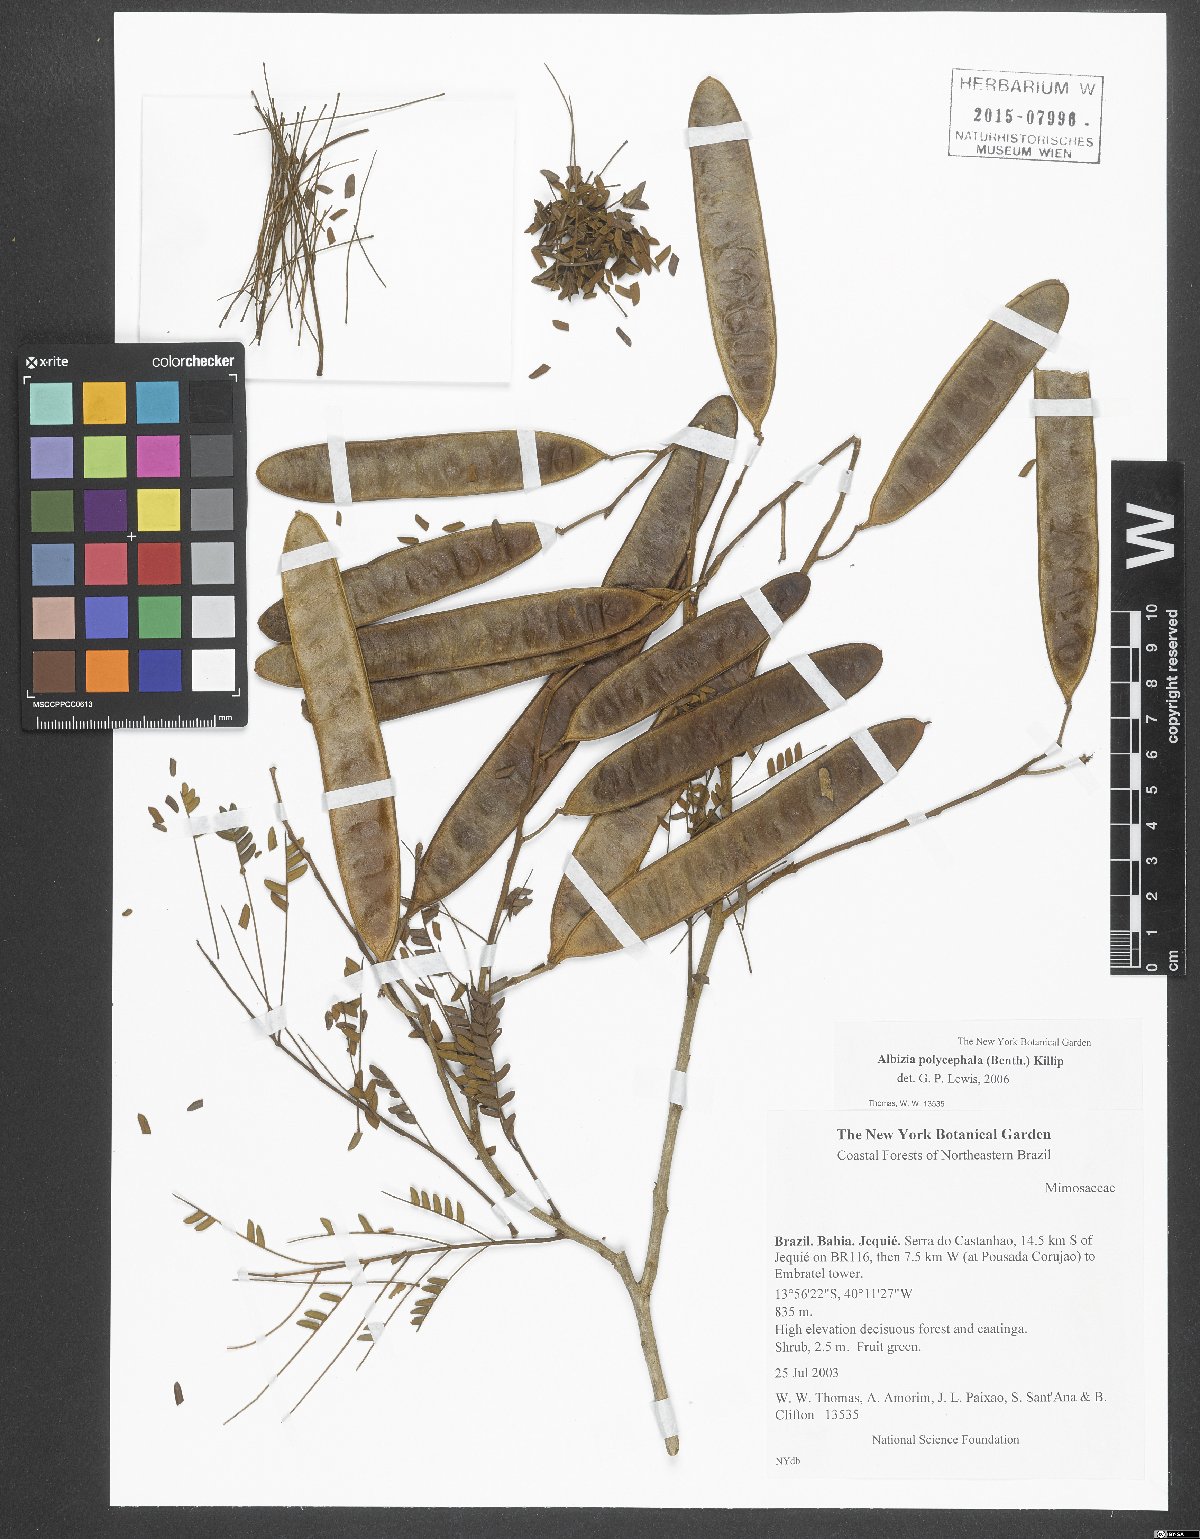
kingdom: Plantae
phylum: Tracheophyta
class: Magnoliopsida
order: Fabales
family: Fabaceae
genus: Albizia
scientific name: Albizia polycephala
